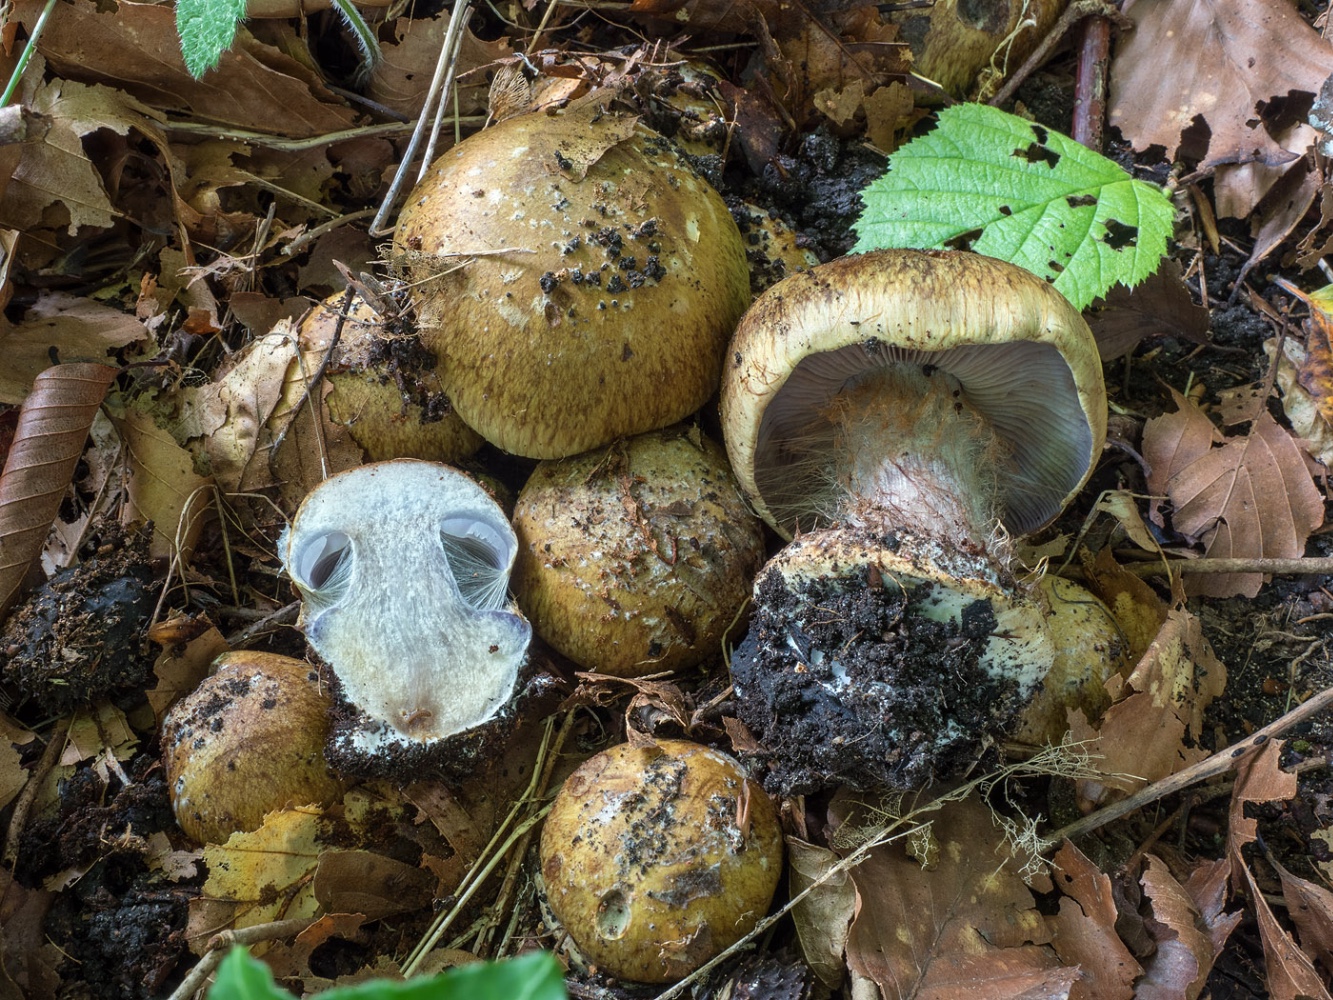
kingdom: Fungi
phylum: Basidiomycota
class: Agaricomycetes
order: Agaricales
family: Cortinariaceae
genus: Phlegmacium
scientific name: Phlegmacium
